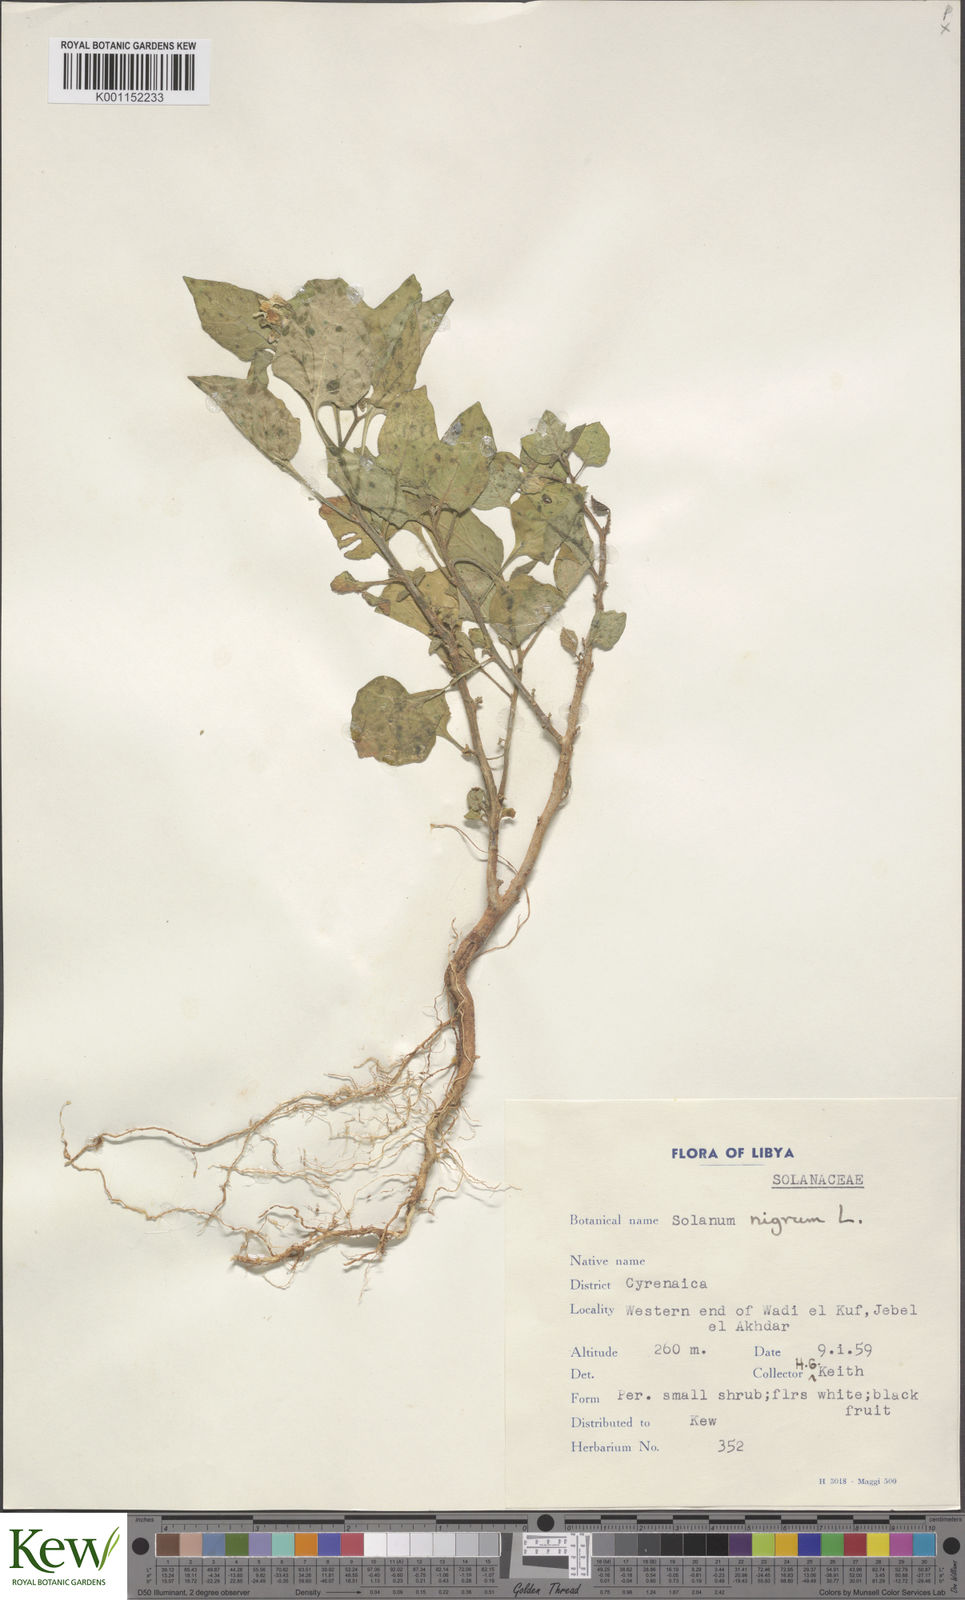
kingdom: Plantae
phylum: Tracheophyta
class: Magnoliopsida
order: Solanales
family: Solanaceae
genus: Solanum
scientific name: Solanum nigrum
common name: Black nightshade
